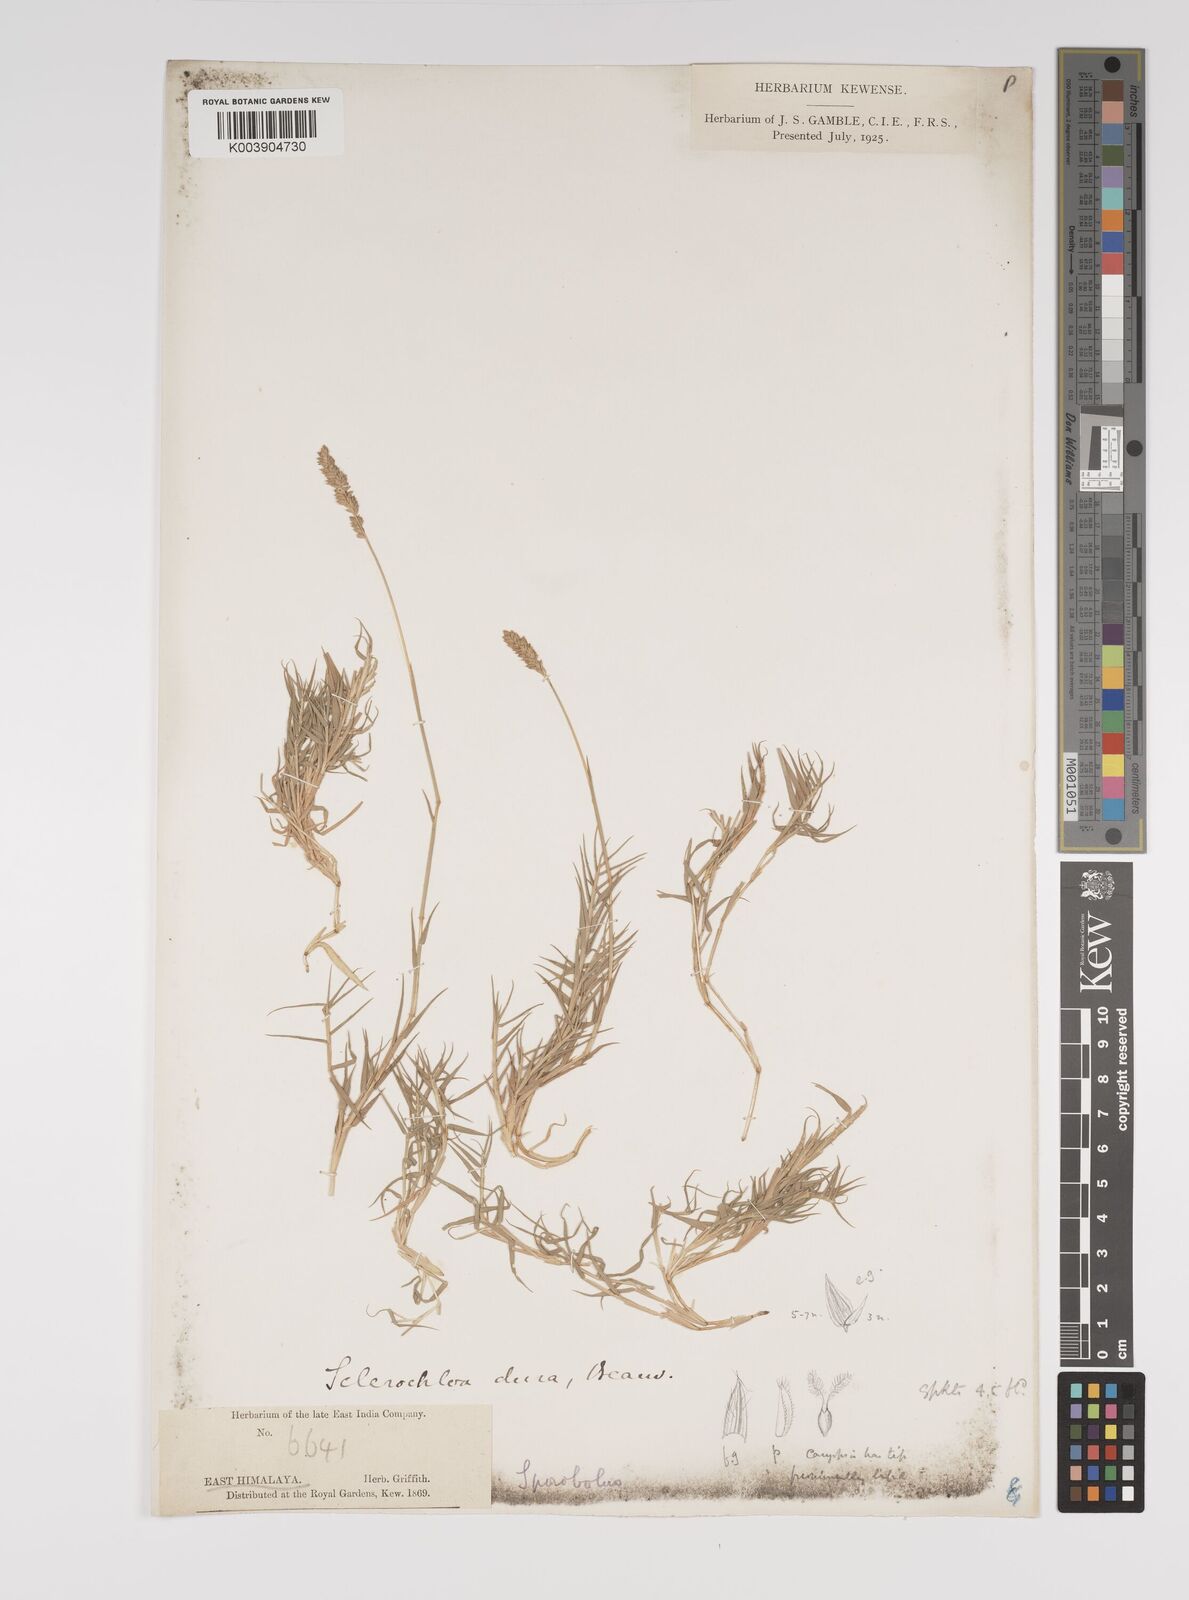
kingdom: Plantae
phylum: Tracheophyta
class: Liliopsida
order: Poales
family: Poaceae
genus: Aeluropus
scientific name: Aeluropus littoralis
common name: Indian walnut
